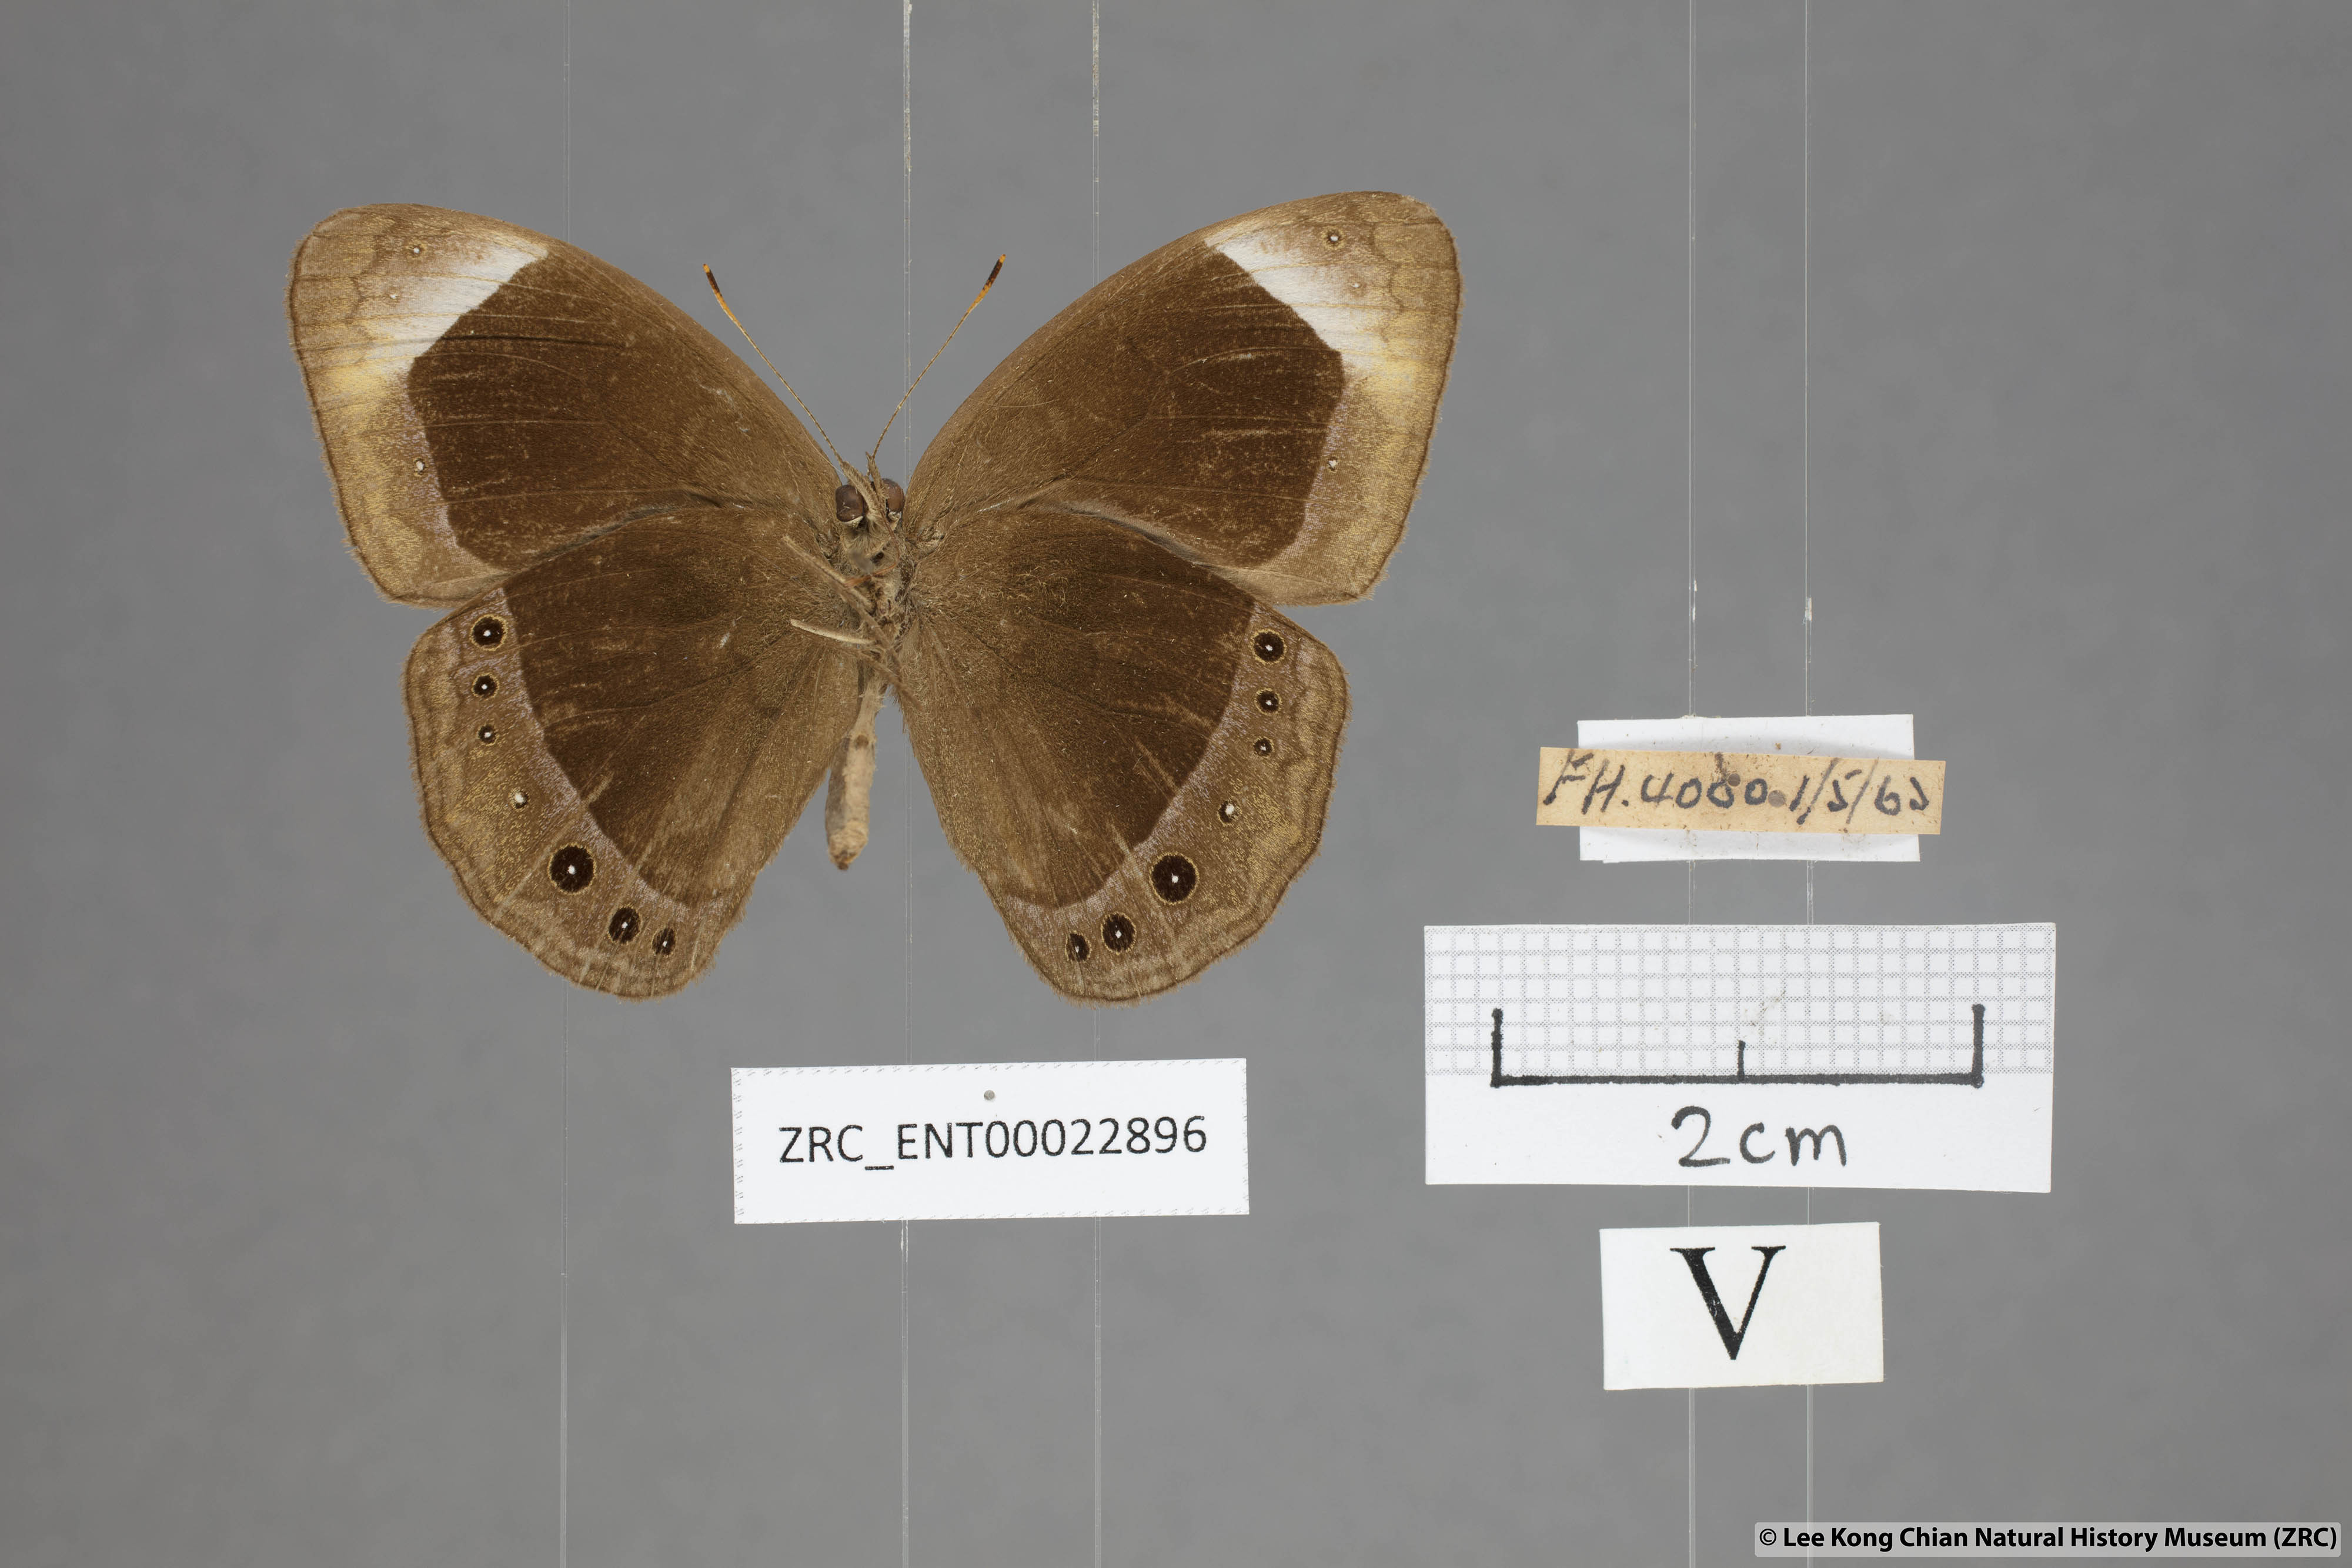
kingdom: Animalia
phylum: Arthropoda
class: Insecta
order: Lepidoptera
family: Nymphalidae
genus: Mycalesis
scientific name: Mycalesis anaxias
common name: White-bar bushbrown
